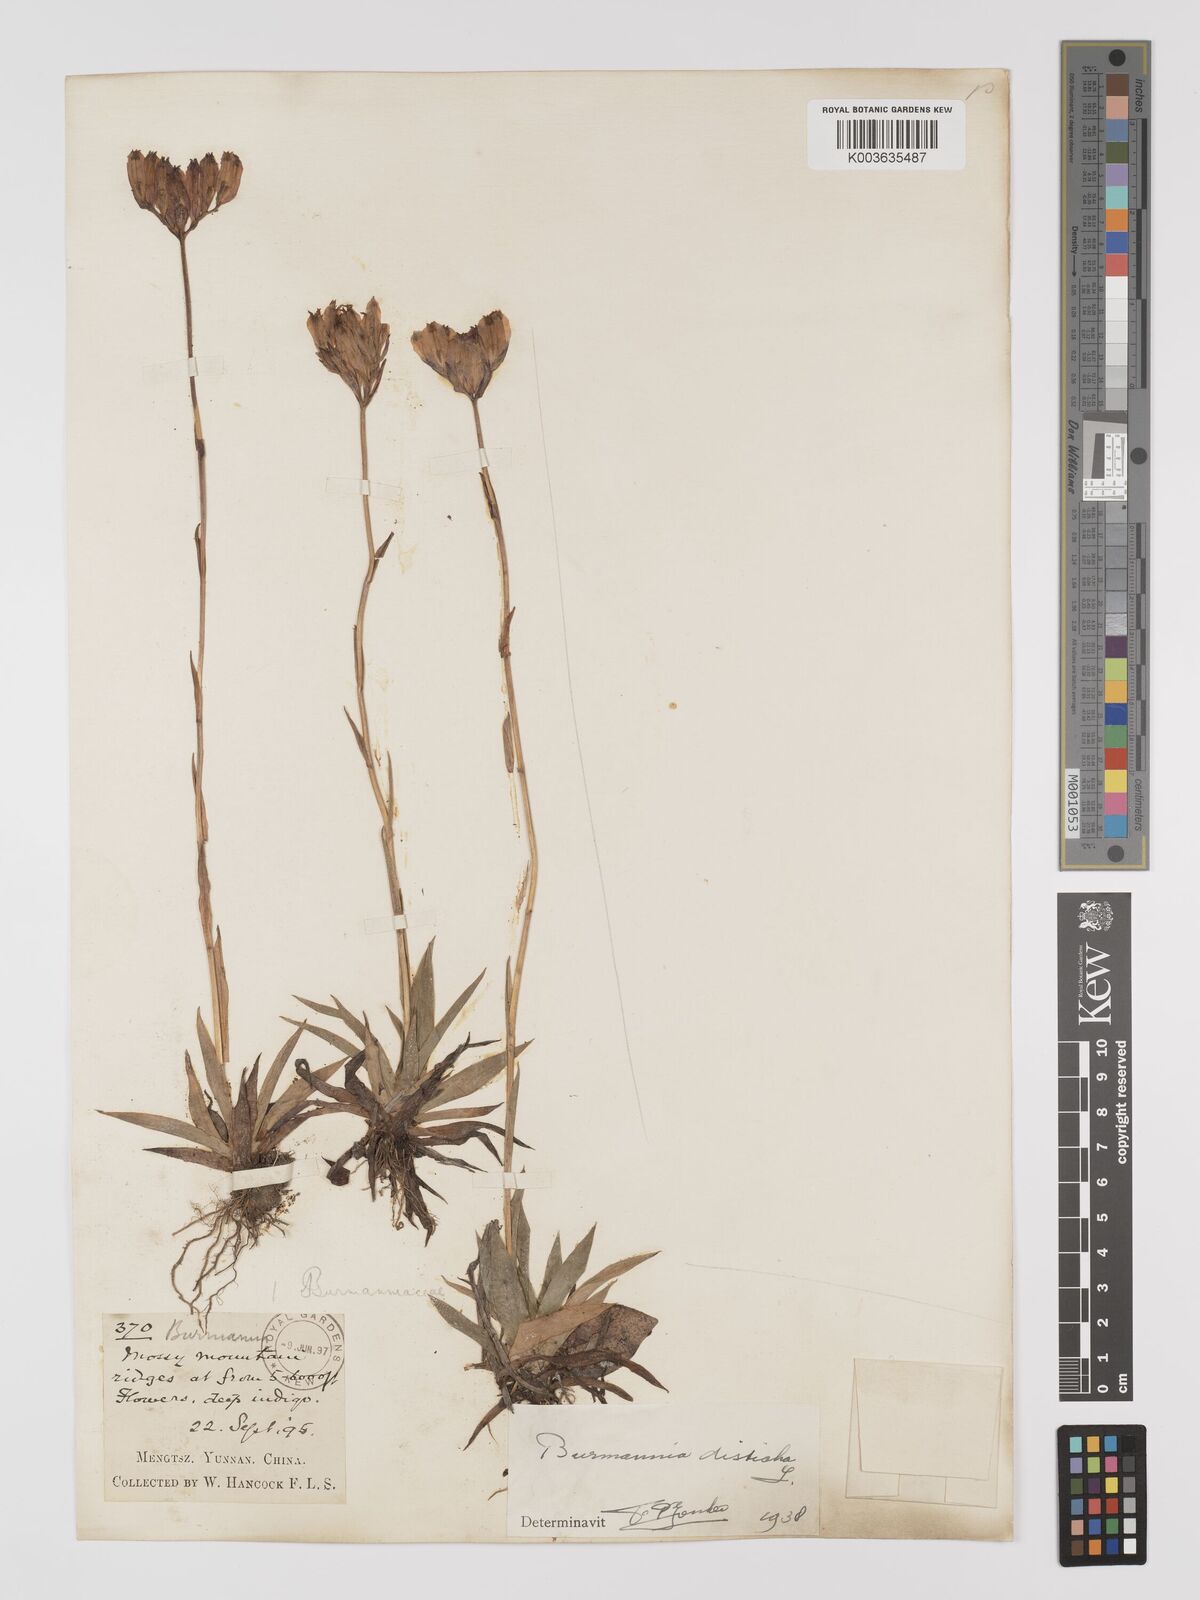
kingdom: Plantae
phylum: Tracheophyta
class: Liliopsida
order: Dioscoreales
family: Burmanniaceae
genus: Burmannia
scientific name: Burmannia disticha
